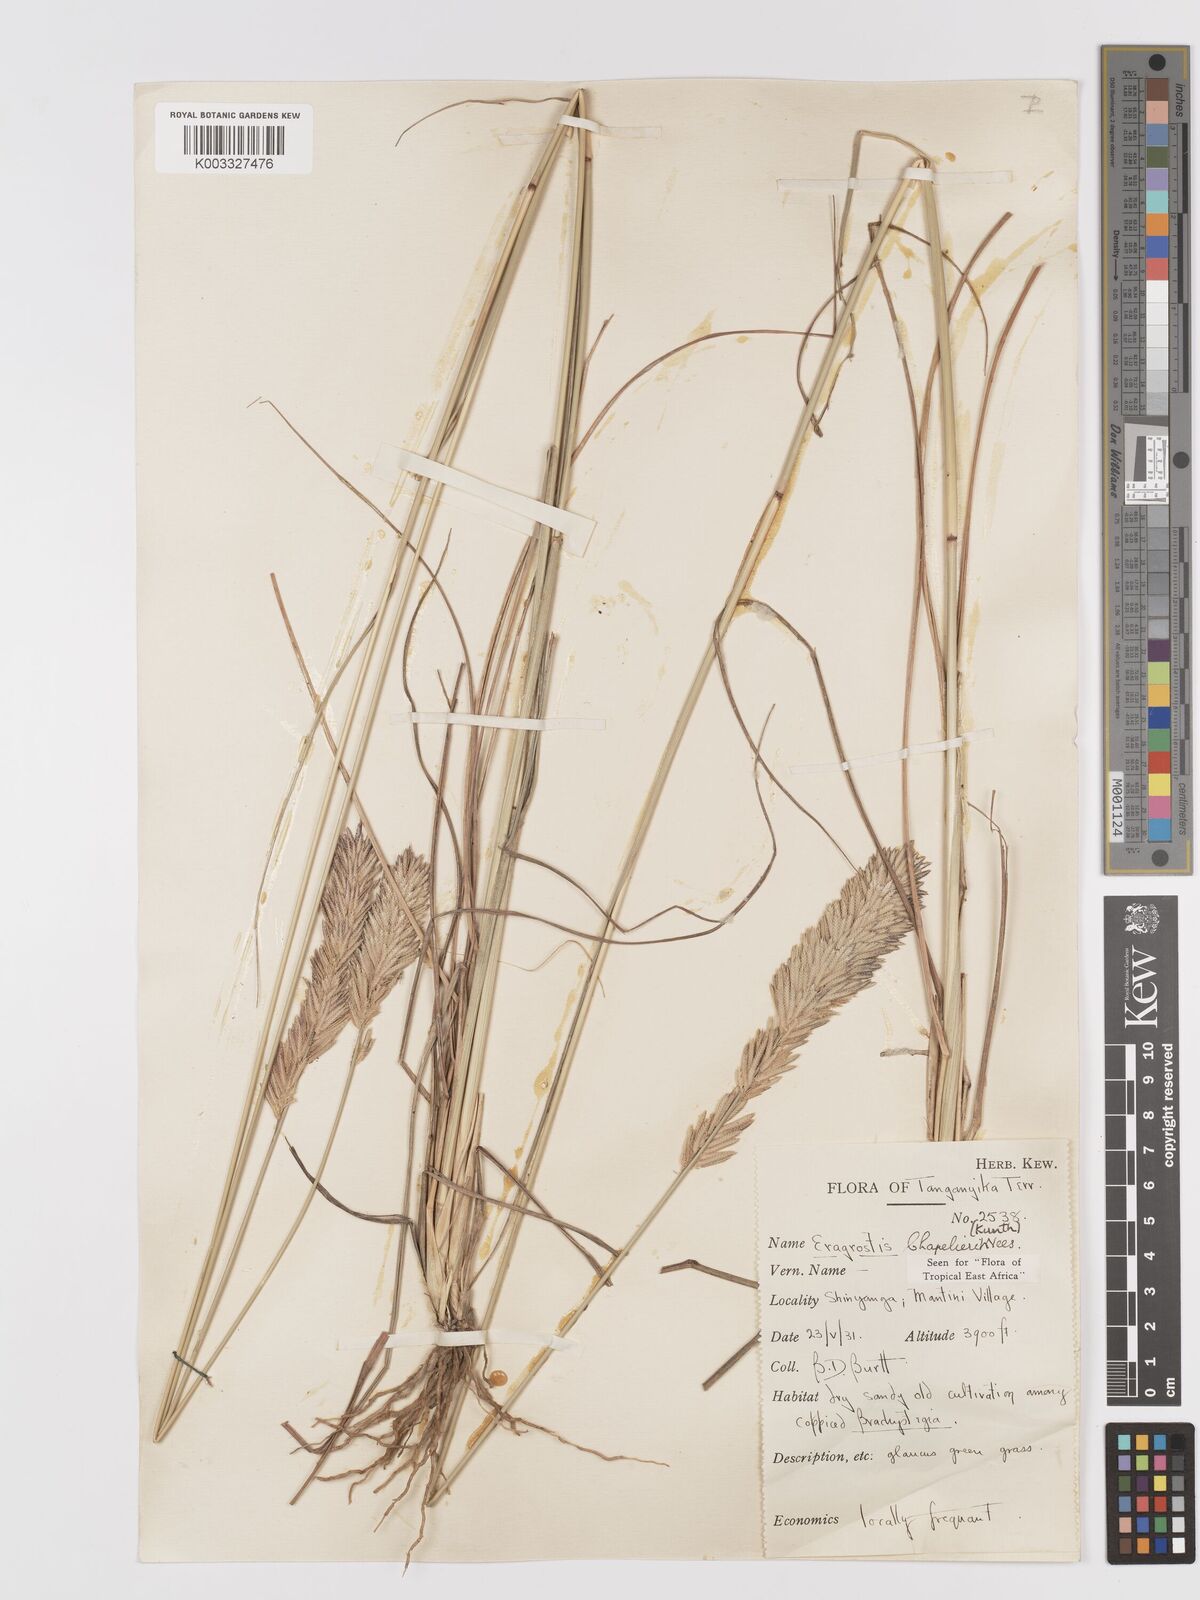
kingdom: Plantae
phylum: Tracheophyta
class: Liliopsida
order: Poales
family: Poaceae
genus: Eragrostis
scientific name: Eragrostis chapelieri
